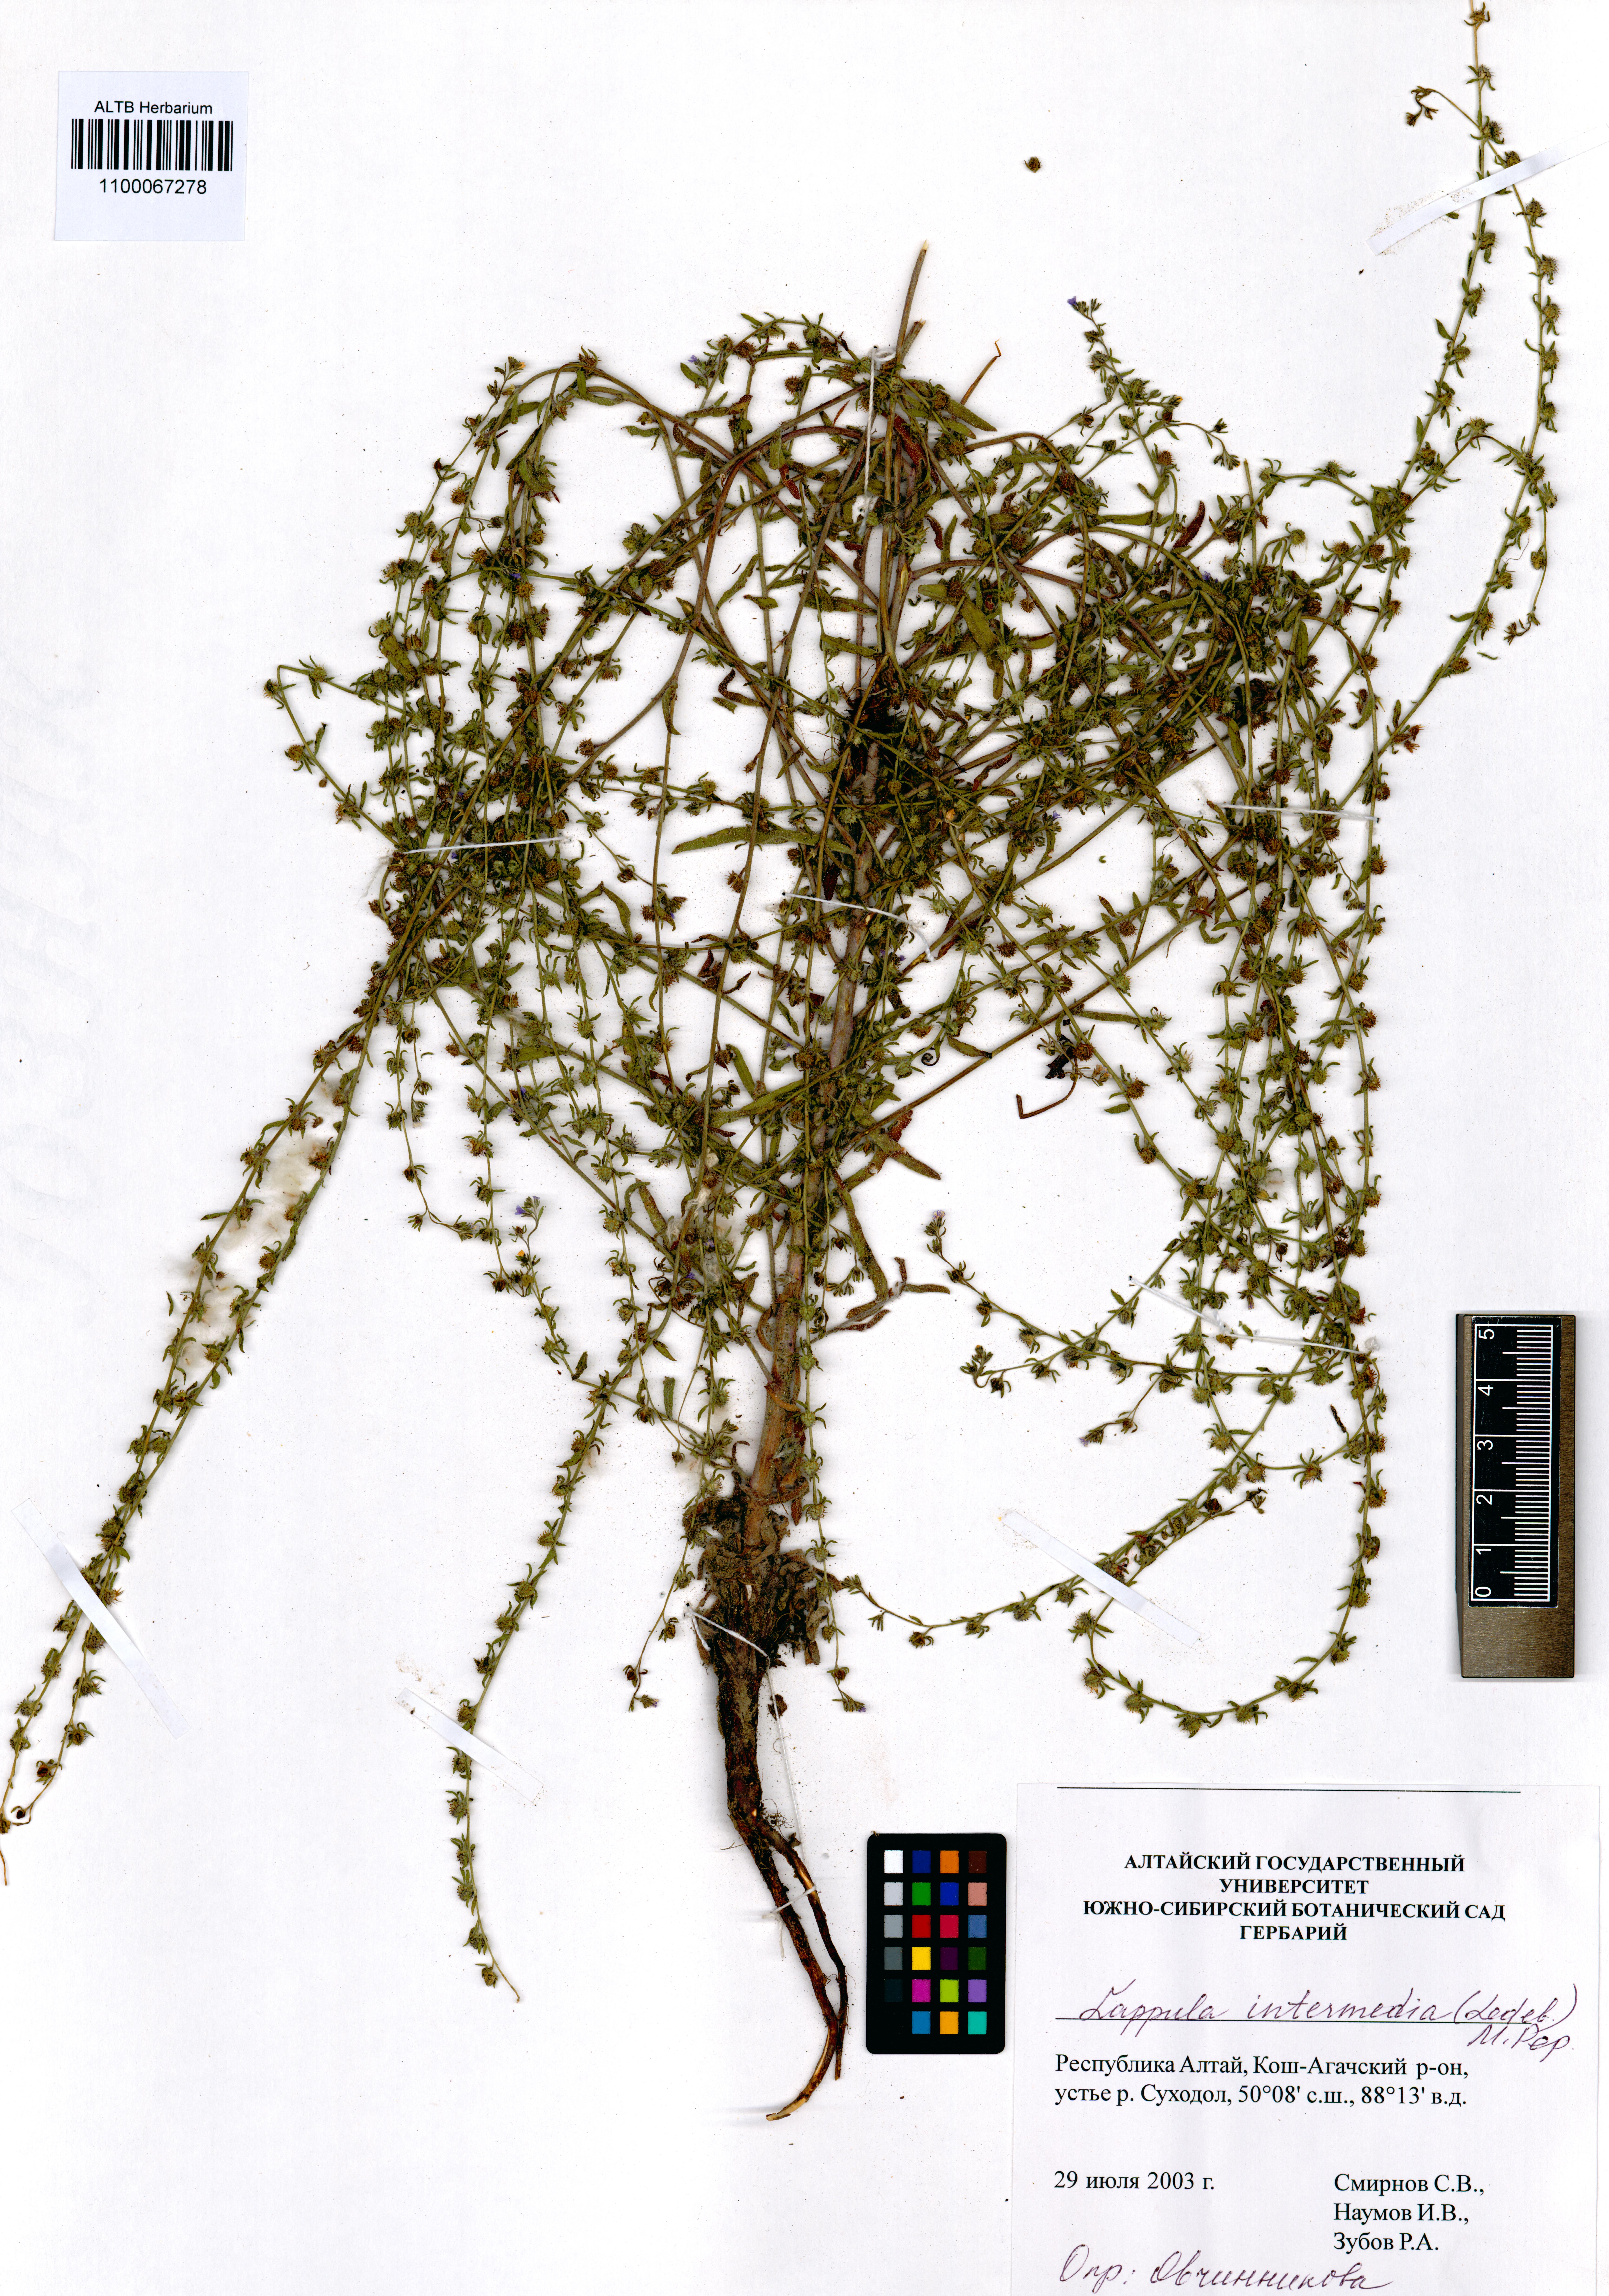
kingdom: Plantae
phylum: Tracheophyta
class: Magnoliopsida
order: Boraginales
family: Boraginaceae
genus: Lappula
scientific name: Lappula intermedia
